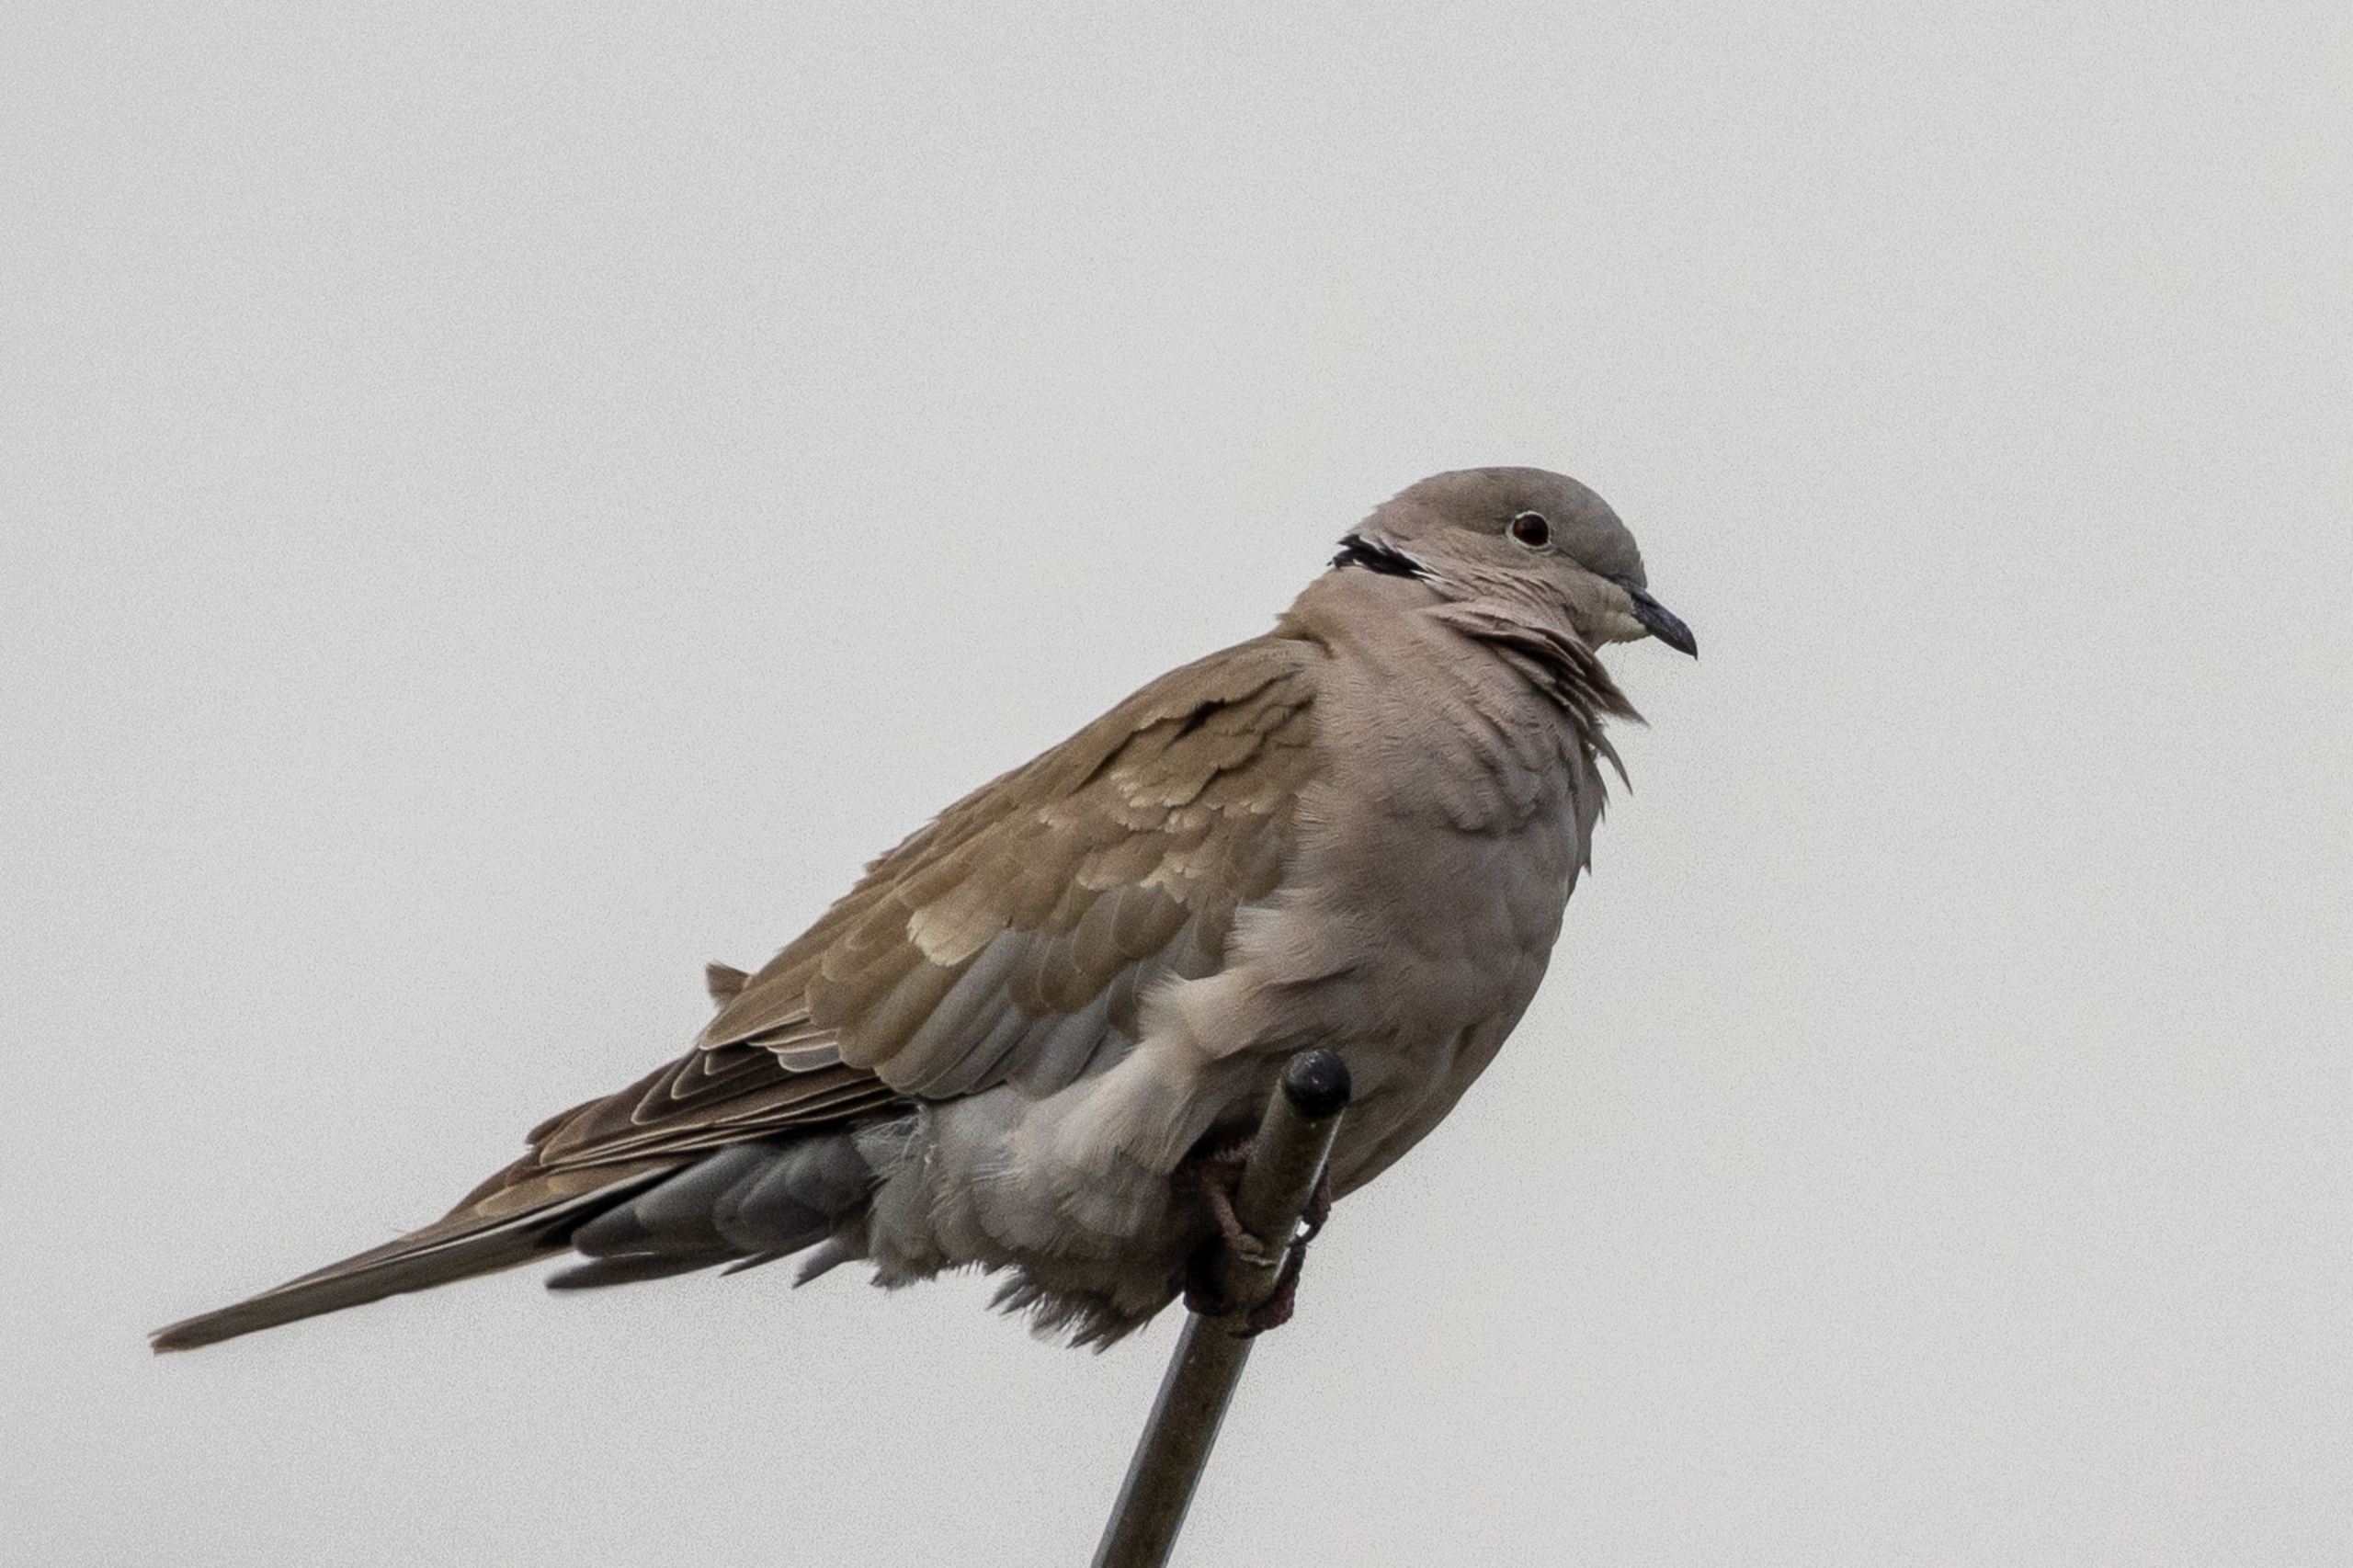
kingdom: Animalia
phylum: Chordata
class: Aves
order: Columbiformes
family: Columbidae
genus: Streptopelia
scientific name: Streptopelia decaocto
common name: Tyrkerdue
